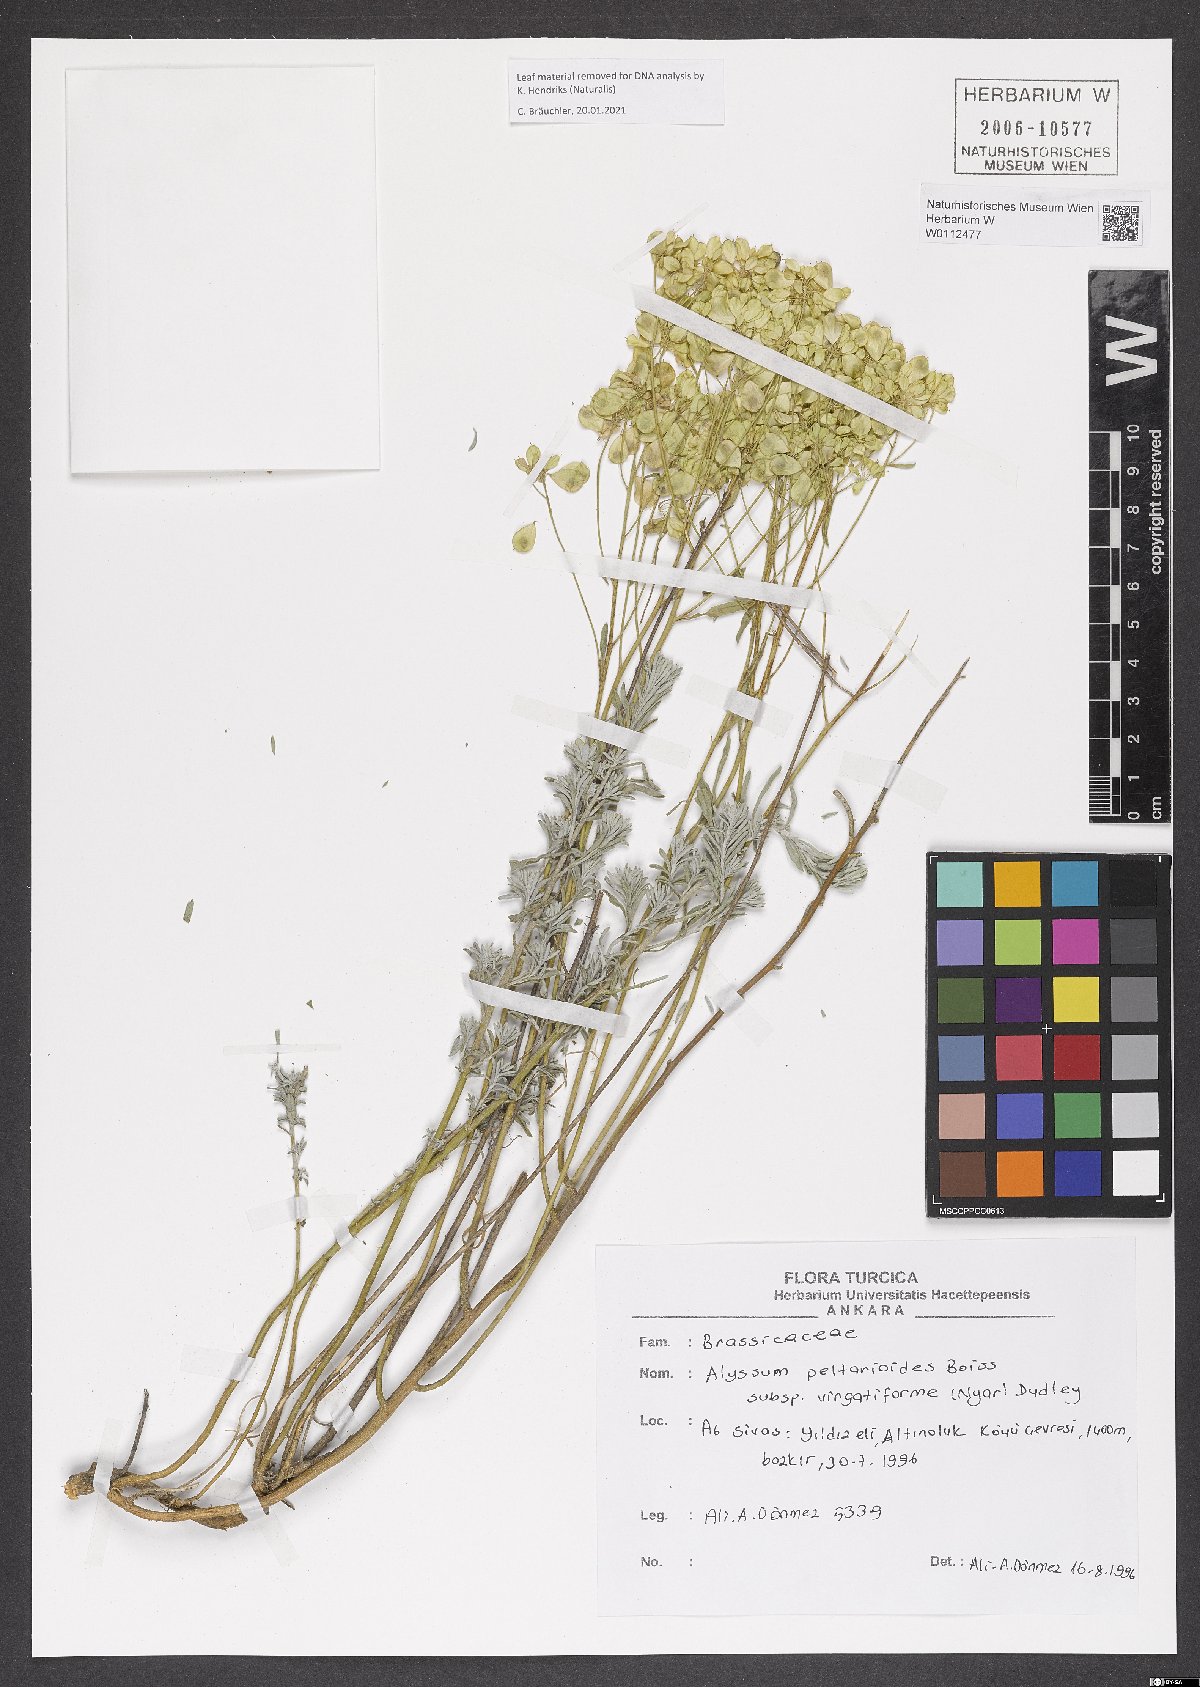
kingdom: Plantae
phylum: Tracheophyta
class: Magnoliopsida
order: Brassicales
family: Brassicaceae
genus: Odontarrhena
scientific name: Odontarrhena peltarioidea
